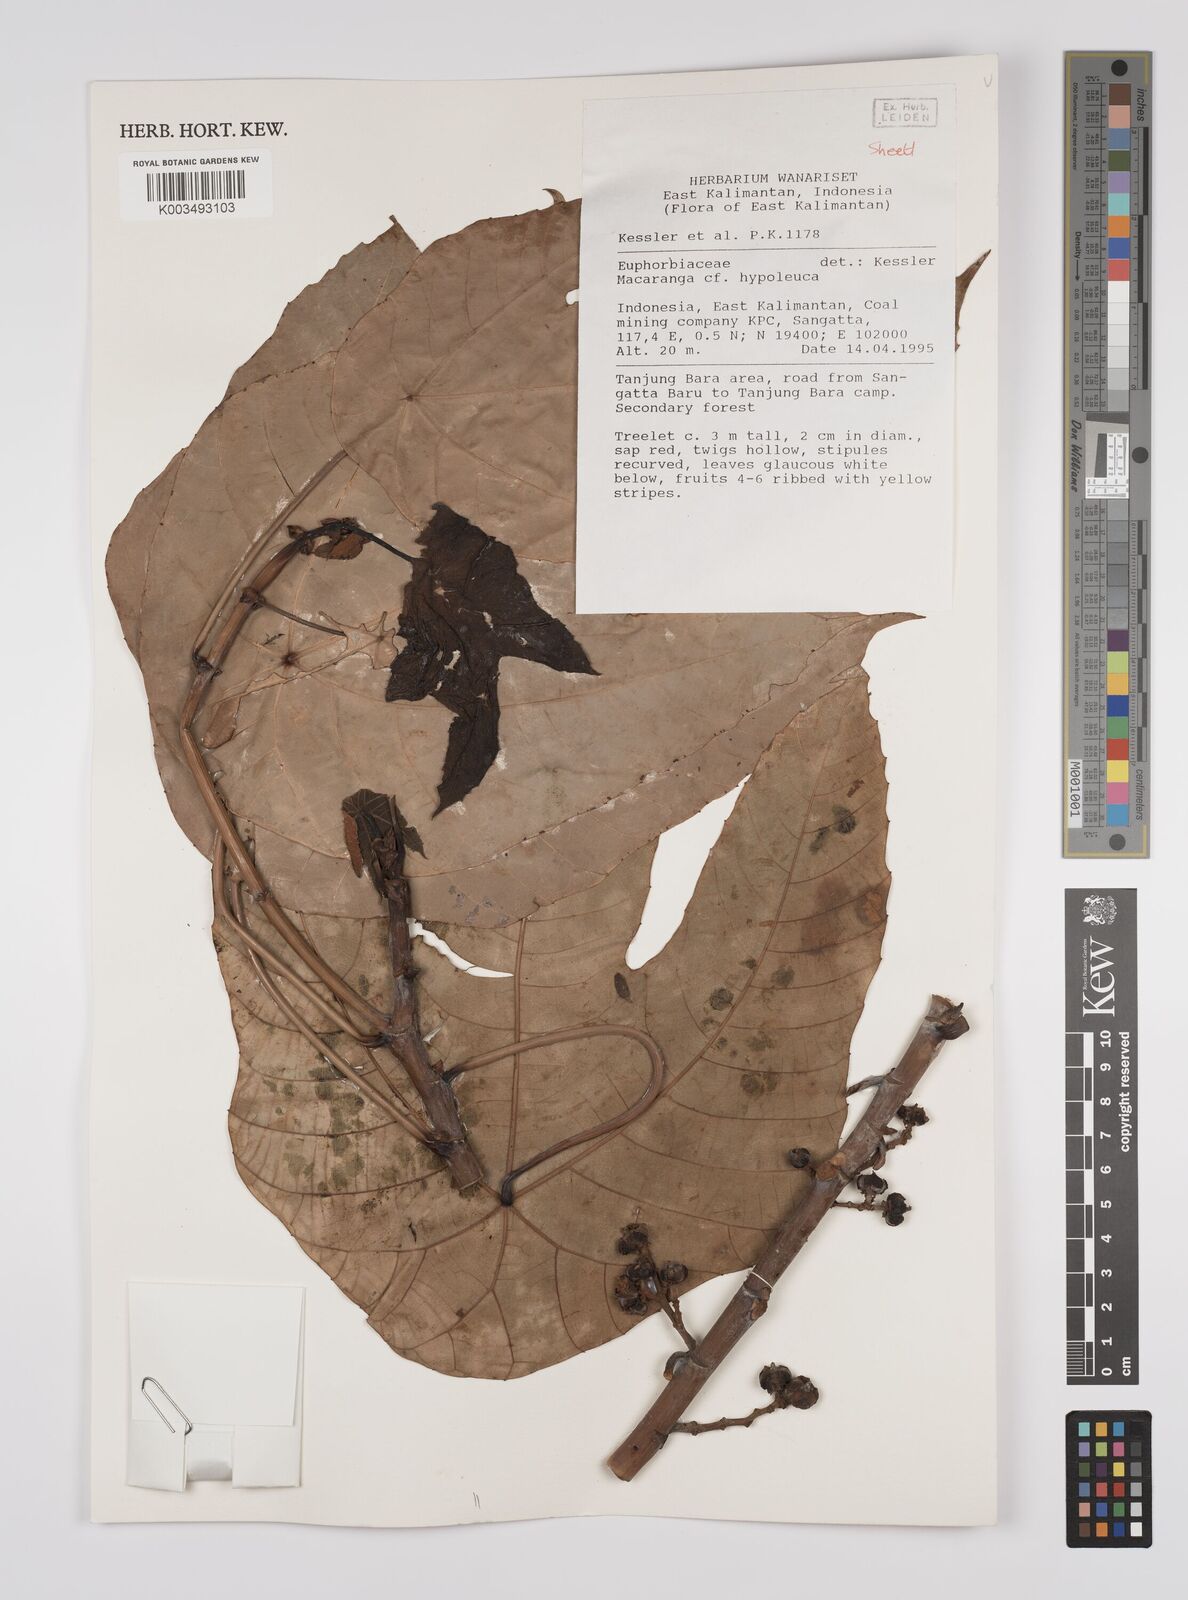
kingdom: Plantae
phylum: Tracheophyta
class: Magnoliopsida
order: Malpighiales
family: Euphorbiaceae
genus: Macaranga
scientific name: Macaranga hypoleuca
